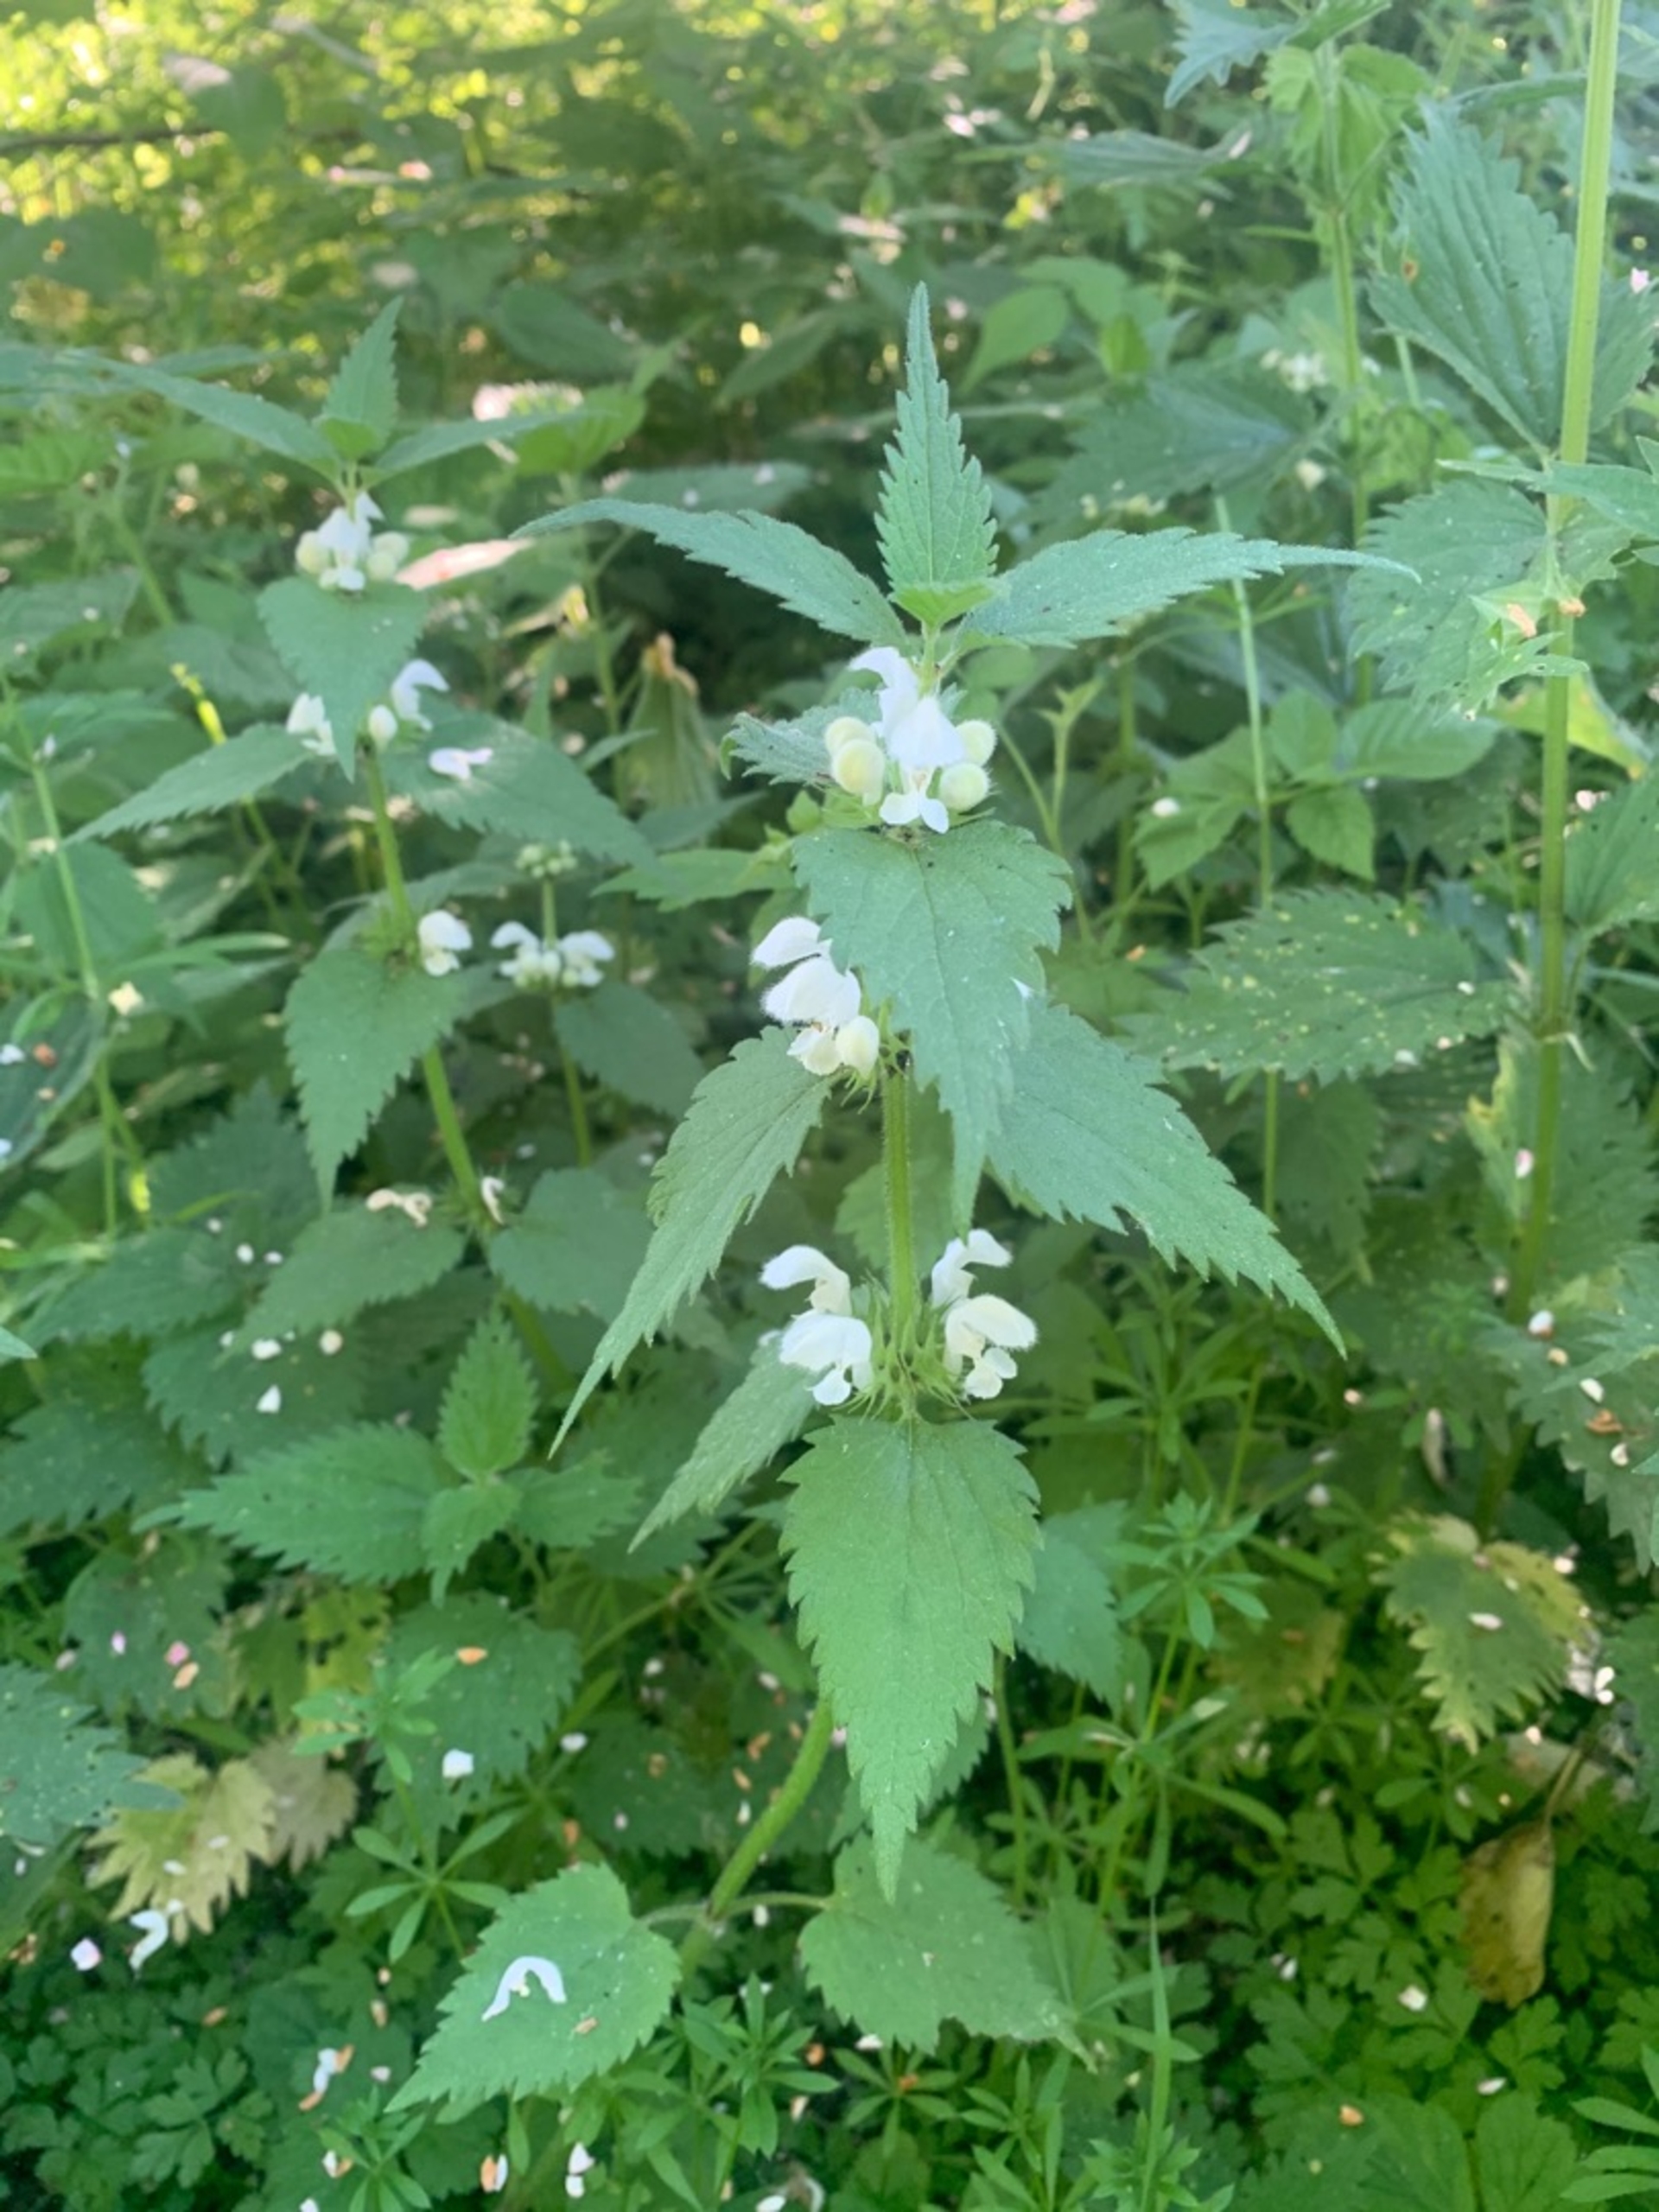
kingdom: Plantae
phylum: Tracheophyta
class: Magnoliopsida
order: Lamiales
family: Lamiaceae
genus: Lamium
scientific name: Lamium album
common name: Døvnælde
